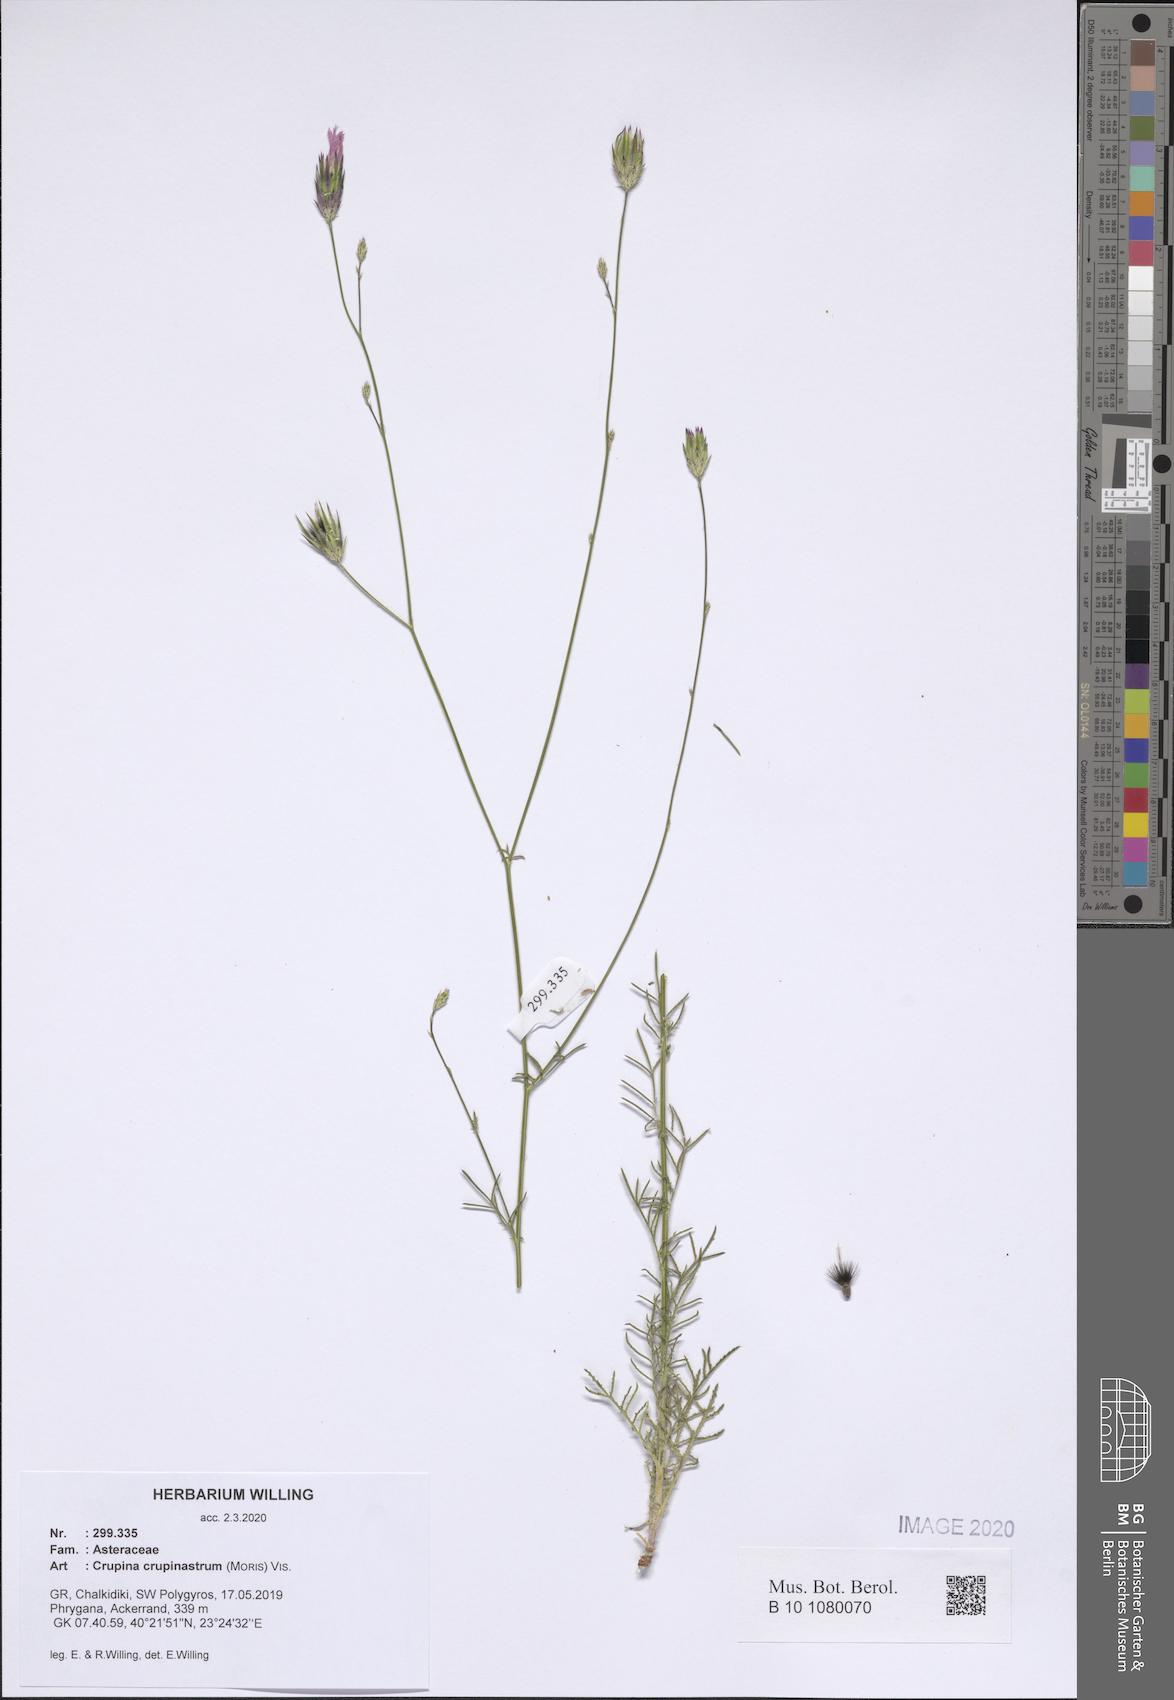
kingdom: Plantae
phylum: Tracheophyta
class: Magnoliopsida
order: Asterales
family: Asteraceae
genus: Crupina
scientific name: Crupina crupinastrum
